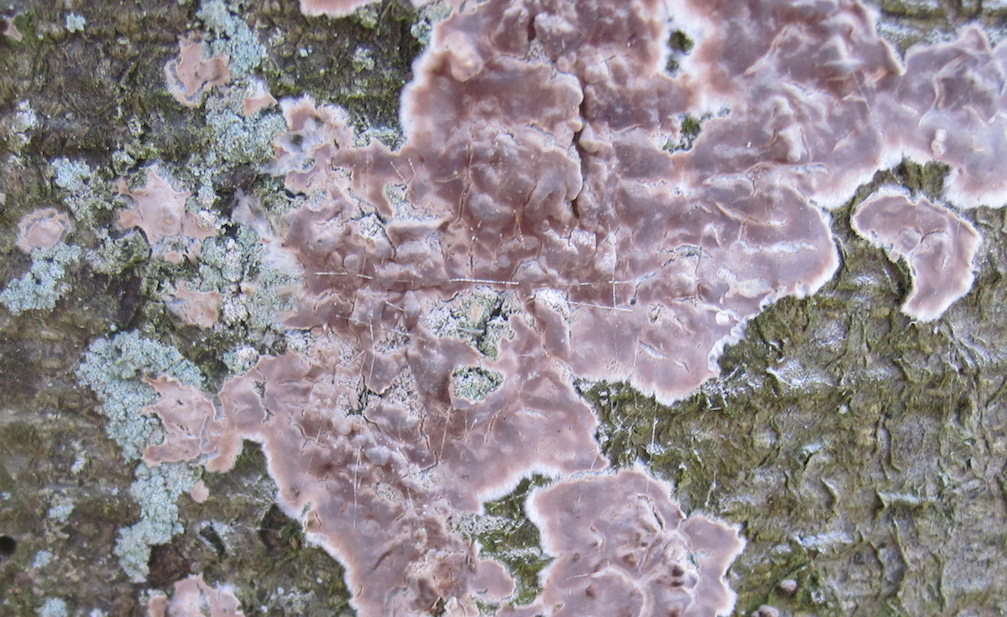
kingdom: Fungi
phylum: Basidiomycota
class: Agaricomycetes
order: Agaricales
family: Physalacriaceae
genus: Cylindrobasidium
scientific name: Cylindrobasidium evolvens
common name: sprækkehinde
